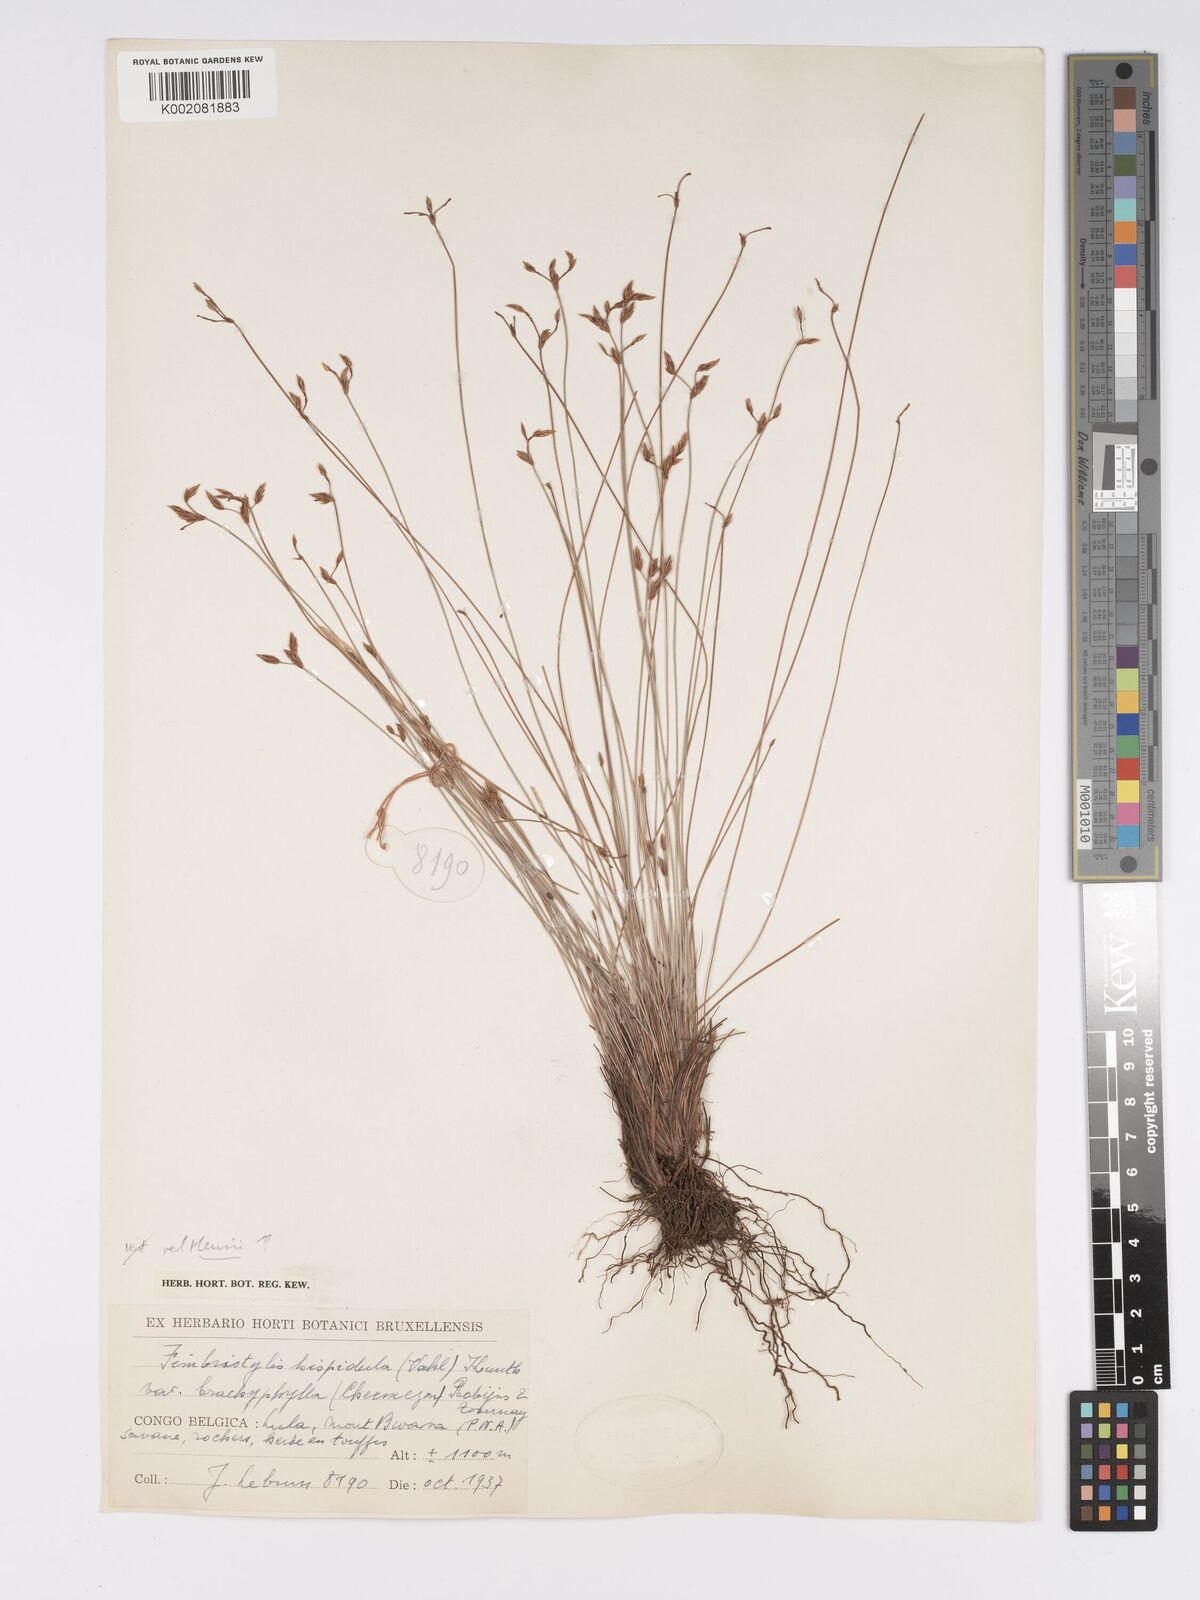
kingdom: Plantae
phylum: Tracheophyta
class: Liliopsida
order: Poales
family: Cyperaceae
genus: Bulbostylis
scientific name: Bulbostylis hispidula
